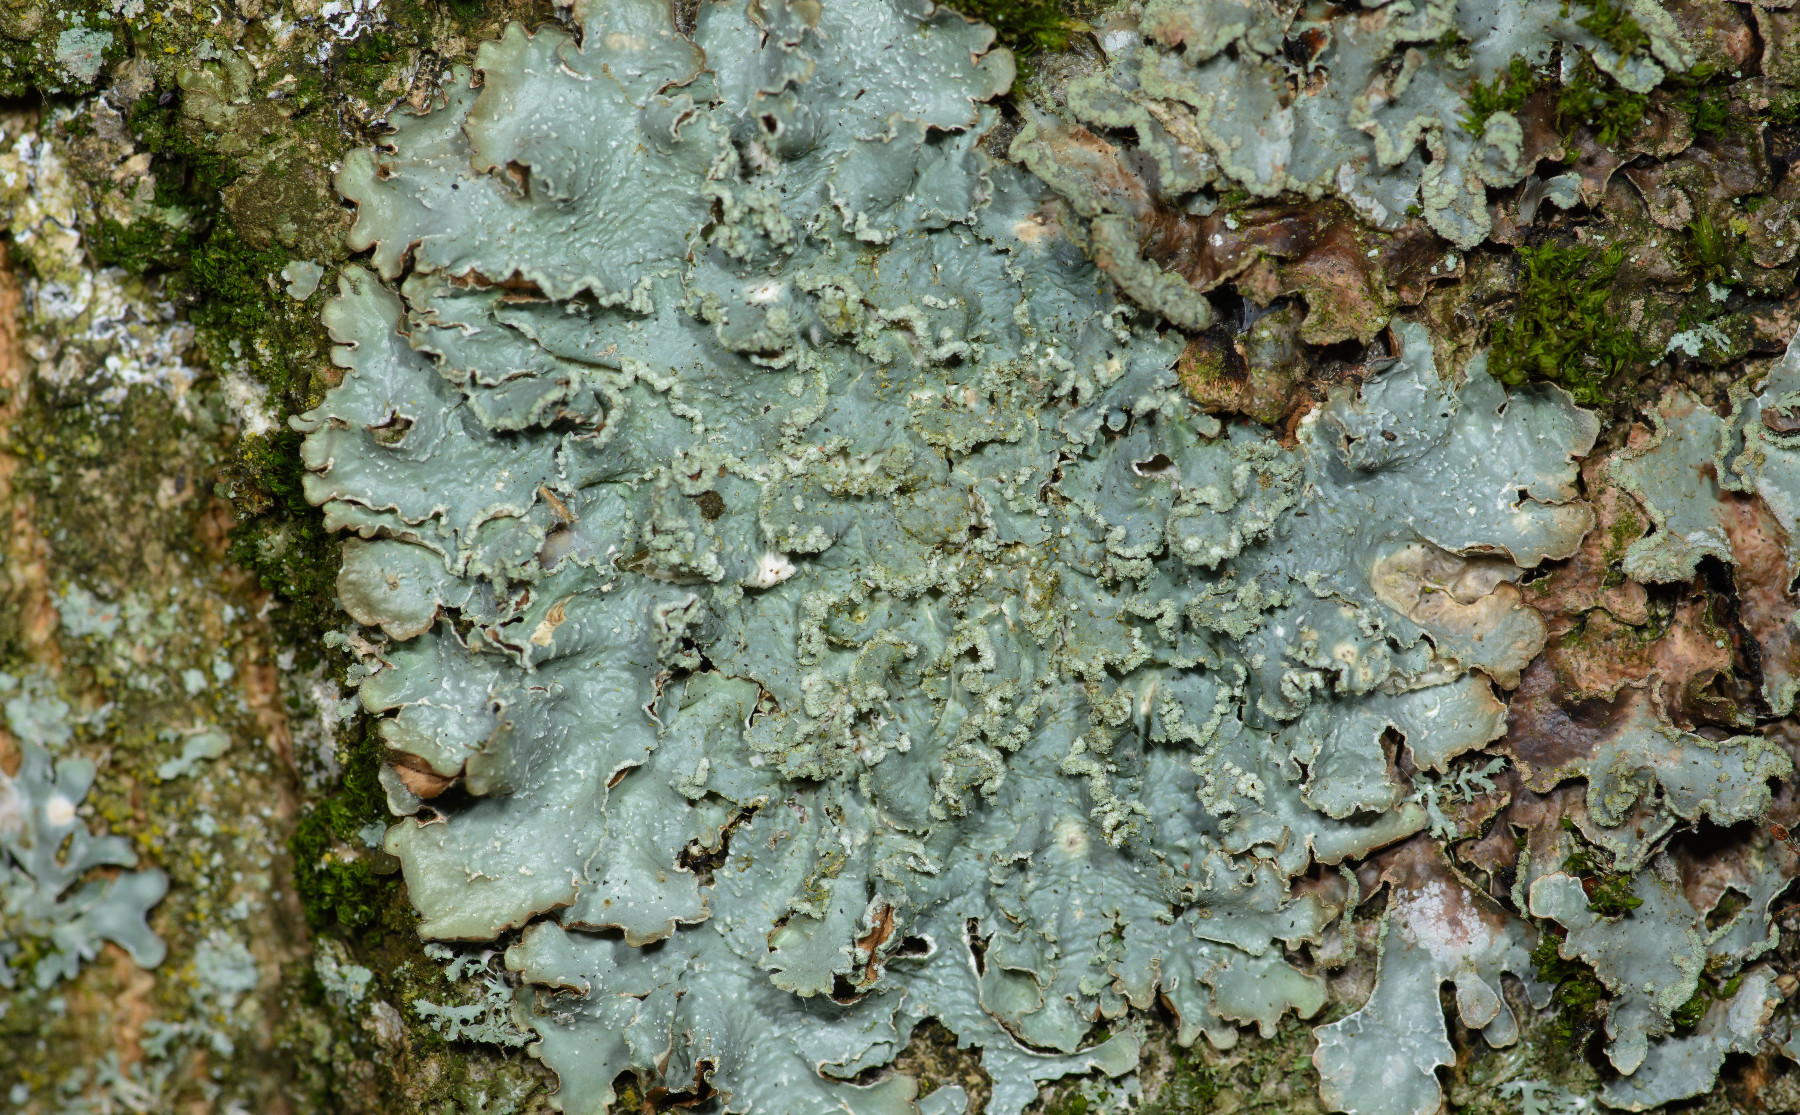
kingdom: Fungi
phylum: Ascomycota
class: Lecanoromycetes
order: Lecanorales
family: Parmeliaceae
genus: Punctelia
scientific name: Punctelia jeckeri
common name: randstøvet skållav
